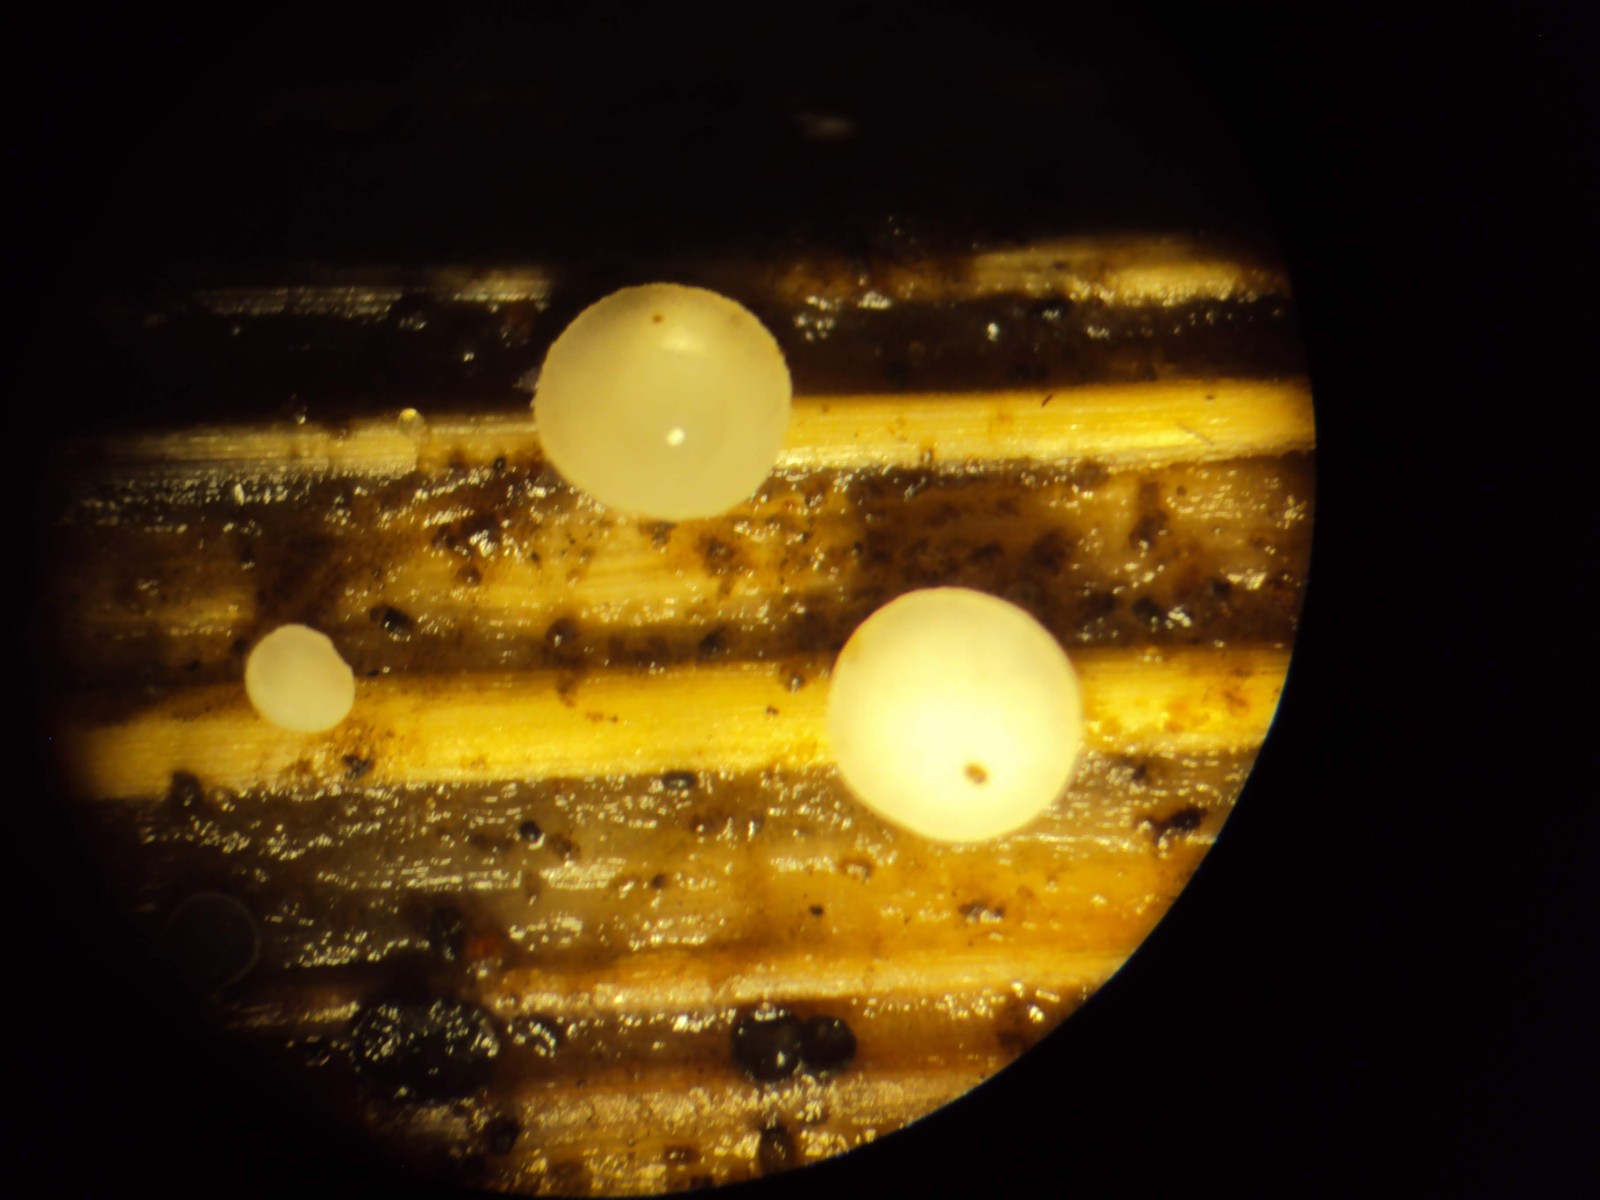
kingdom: Fungi
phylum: Ascomycota
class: Leotiomycetes
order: Helotiales
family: Pezizellaceae
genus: Calycina
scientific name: Calycina herbarum
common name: elfenbens-gulskive
